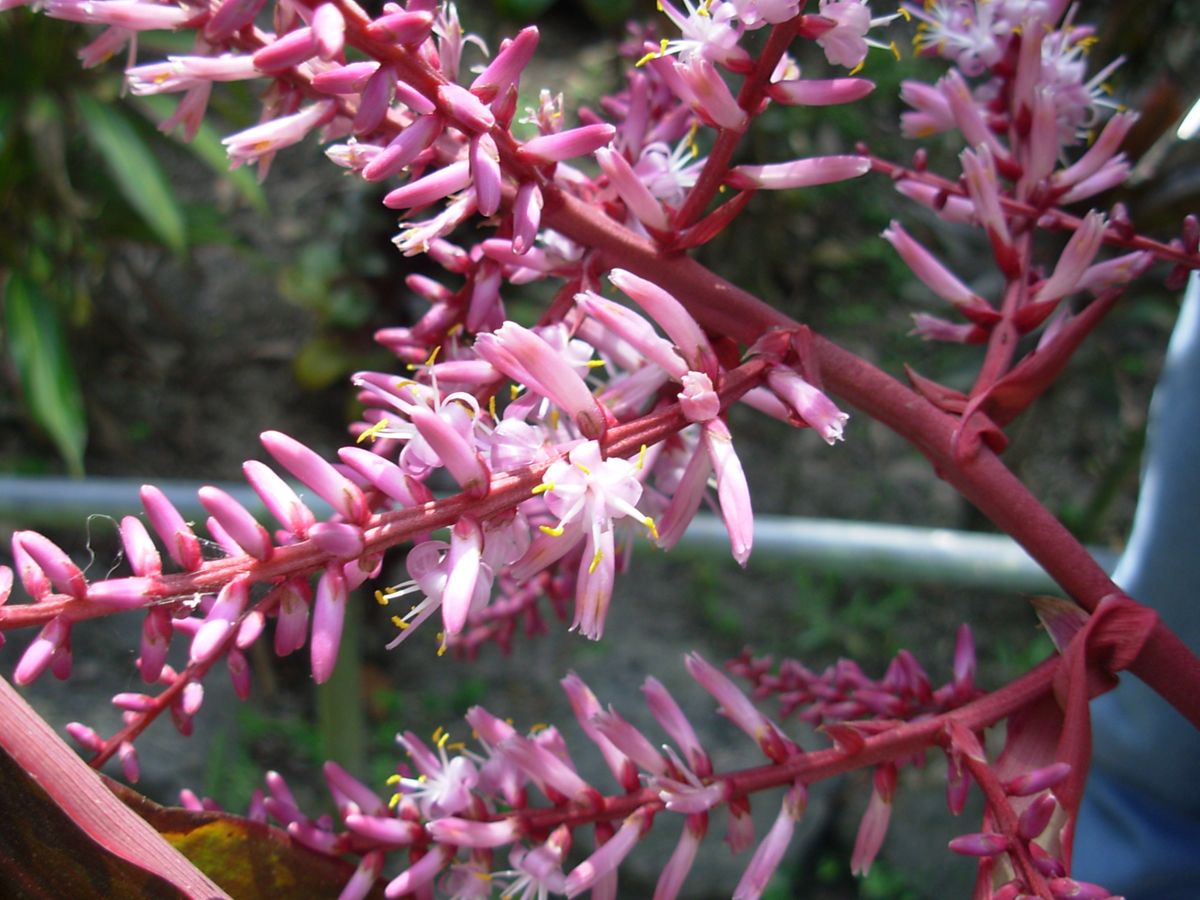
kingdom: Plantae
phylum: Tracheophyta
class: Liliopsida
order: Asparagales
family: Asparagaceae
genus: Cordyline
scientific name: Cordyline fruticosa
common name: Good-luck-plant
